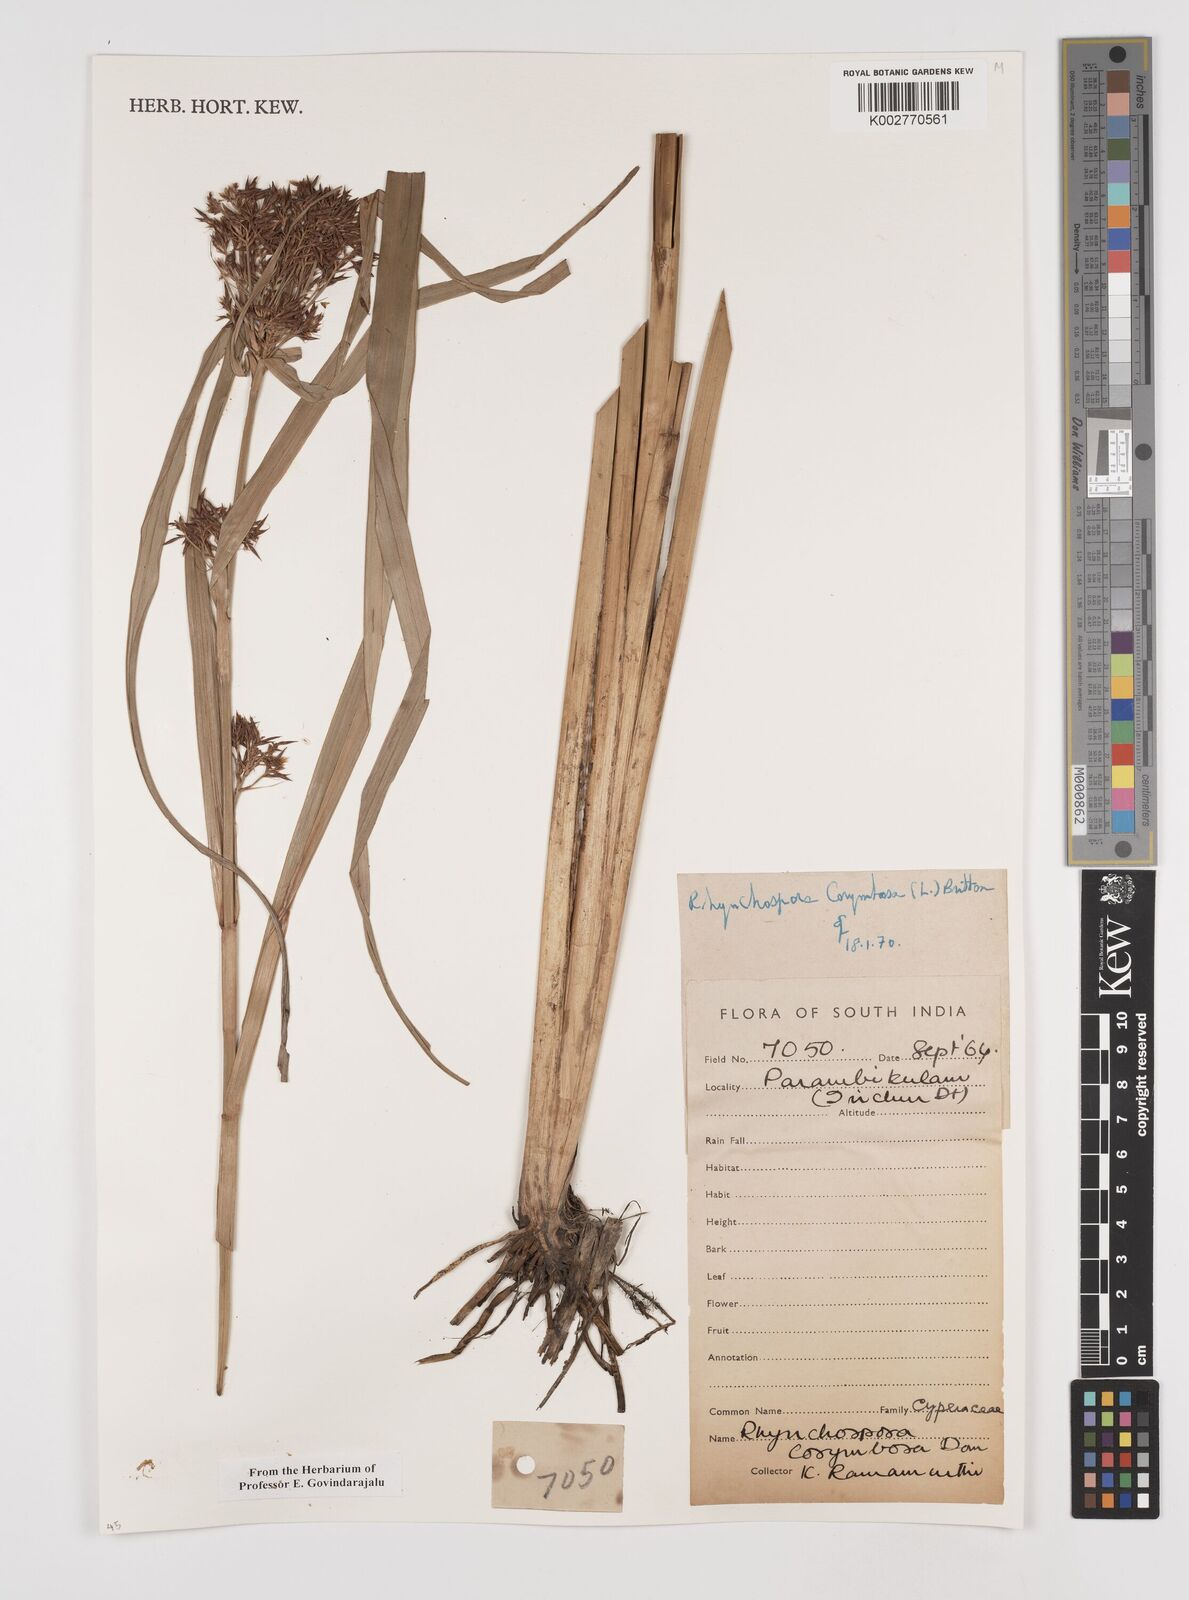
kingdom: Plantae
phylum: Tracheophyta
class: Liliopsida
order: Poales
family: Cyperaceae
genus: Rhynchospora
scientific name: Rhynchospora corymbosa
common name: Golden beak sedge
